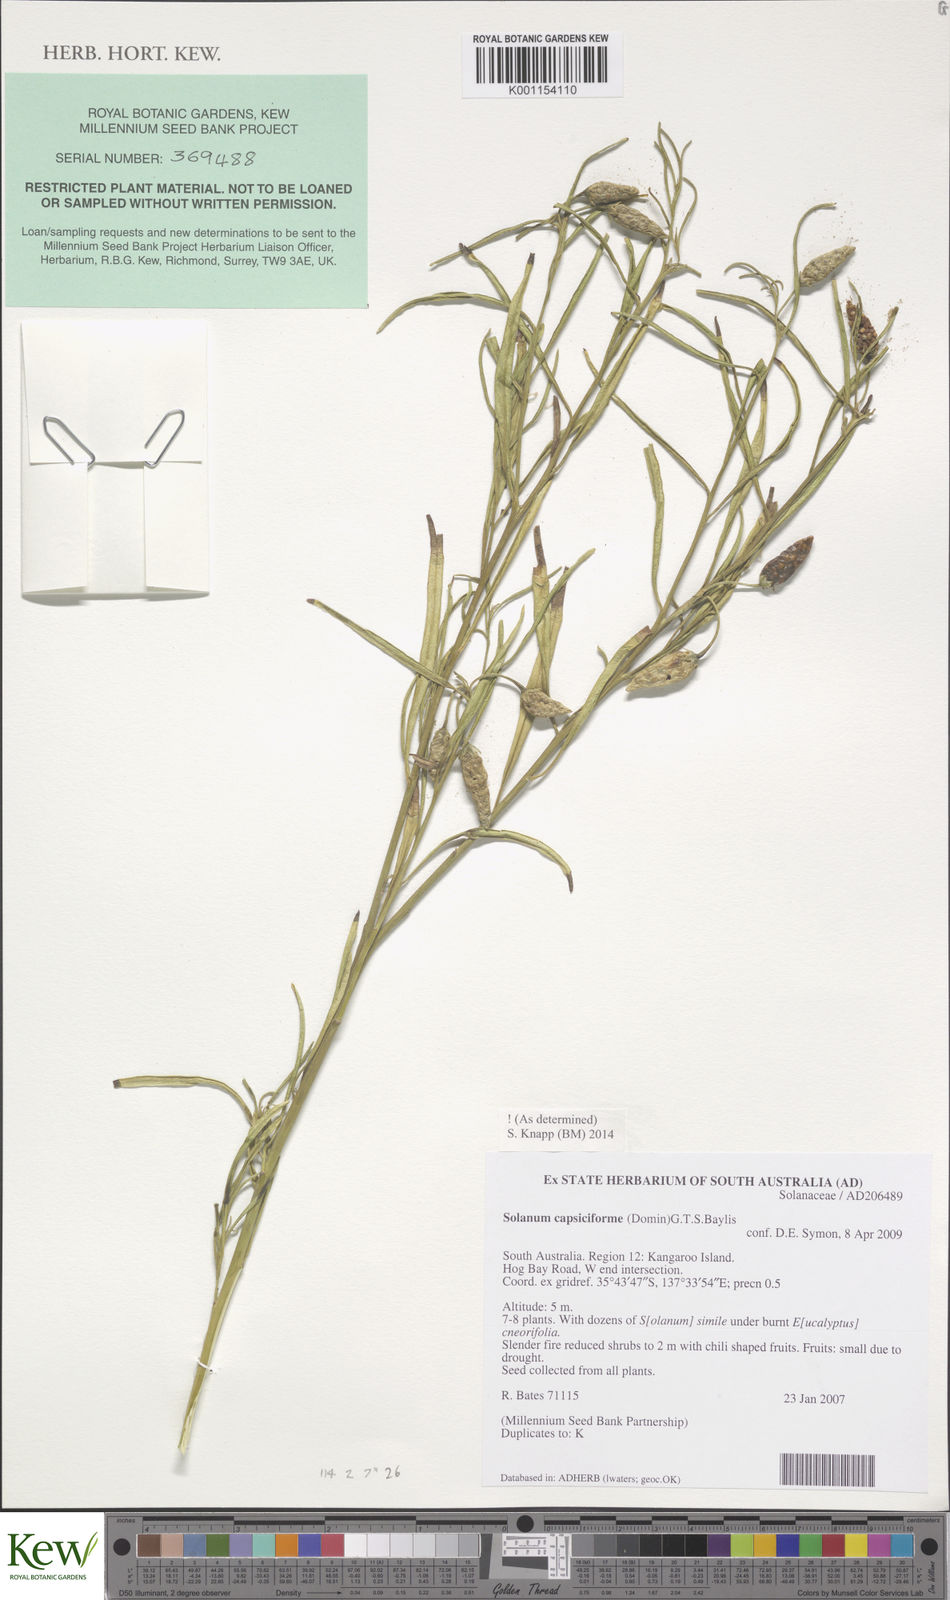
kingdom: Plantae
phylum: Tracheophyta
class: Magnoliopsida
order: Solanales
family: Solanaceae
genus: Solanum
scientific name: Solanum
